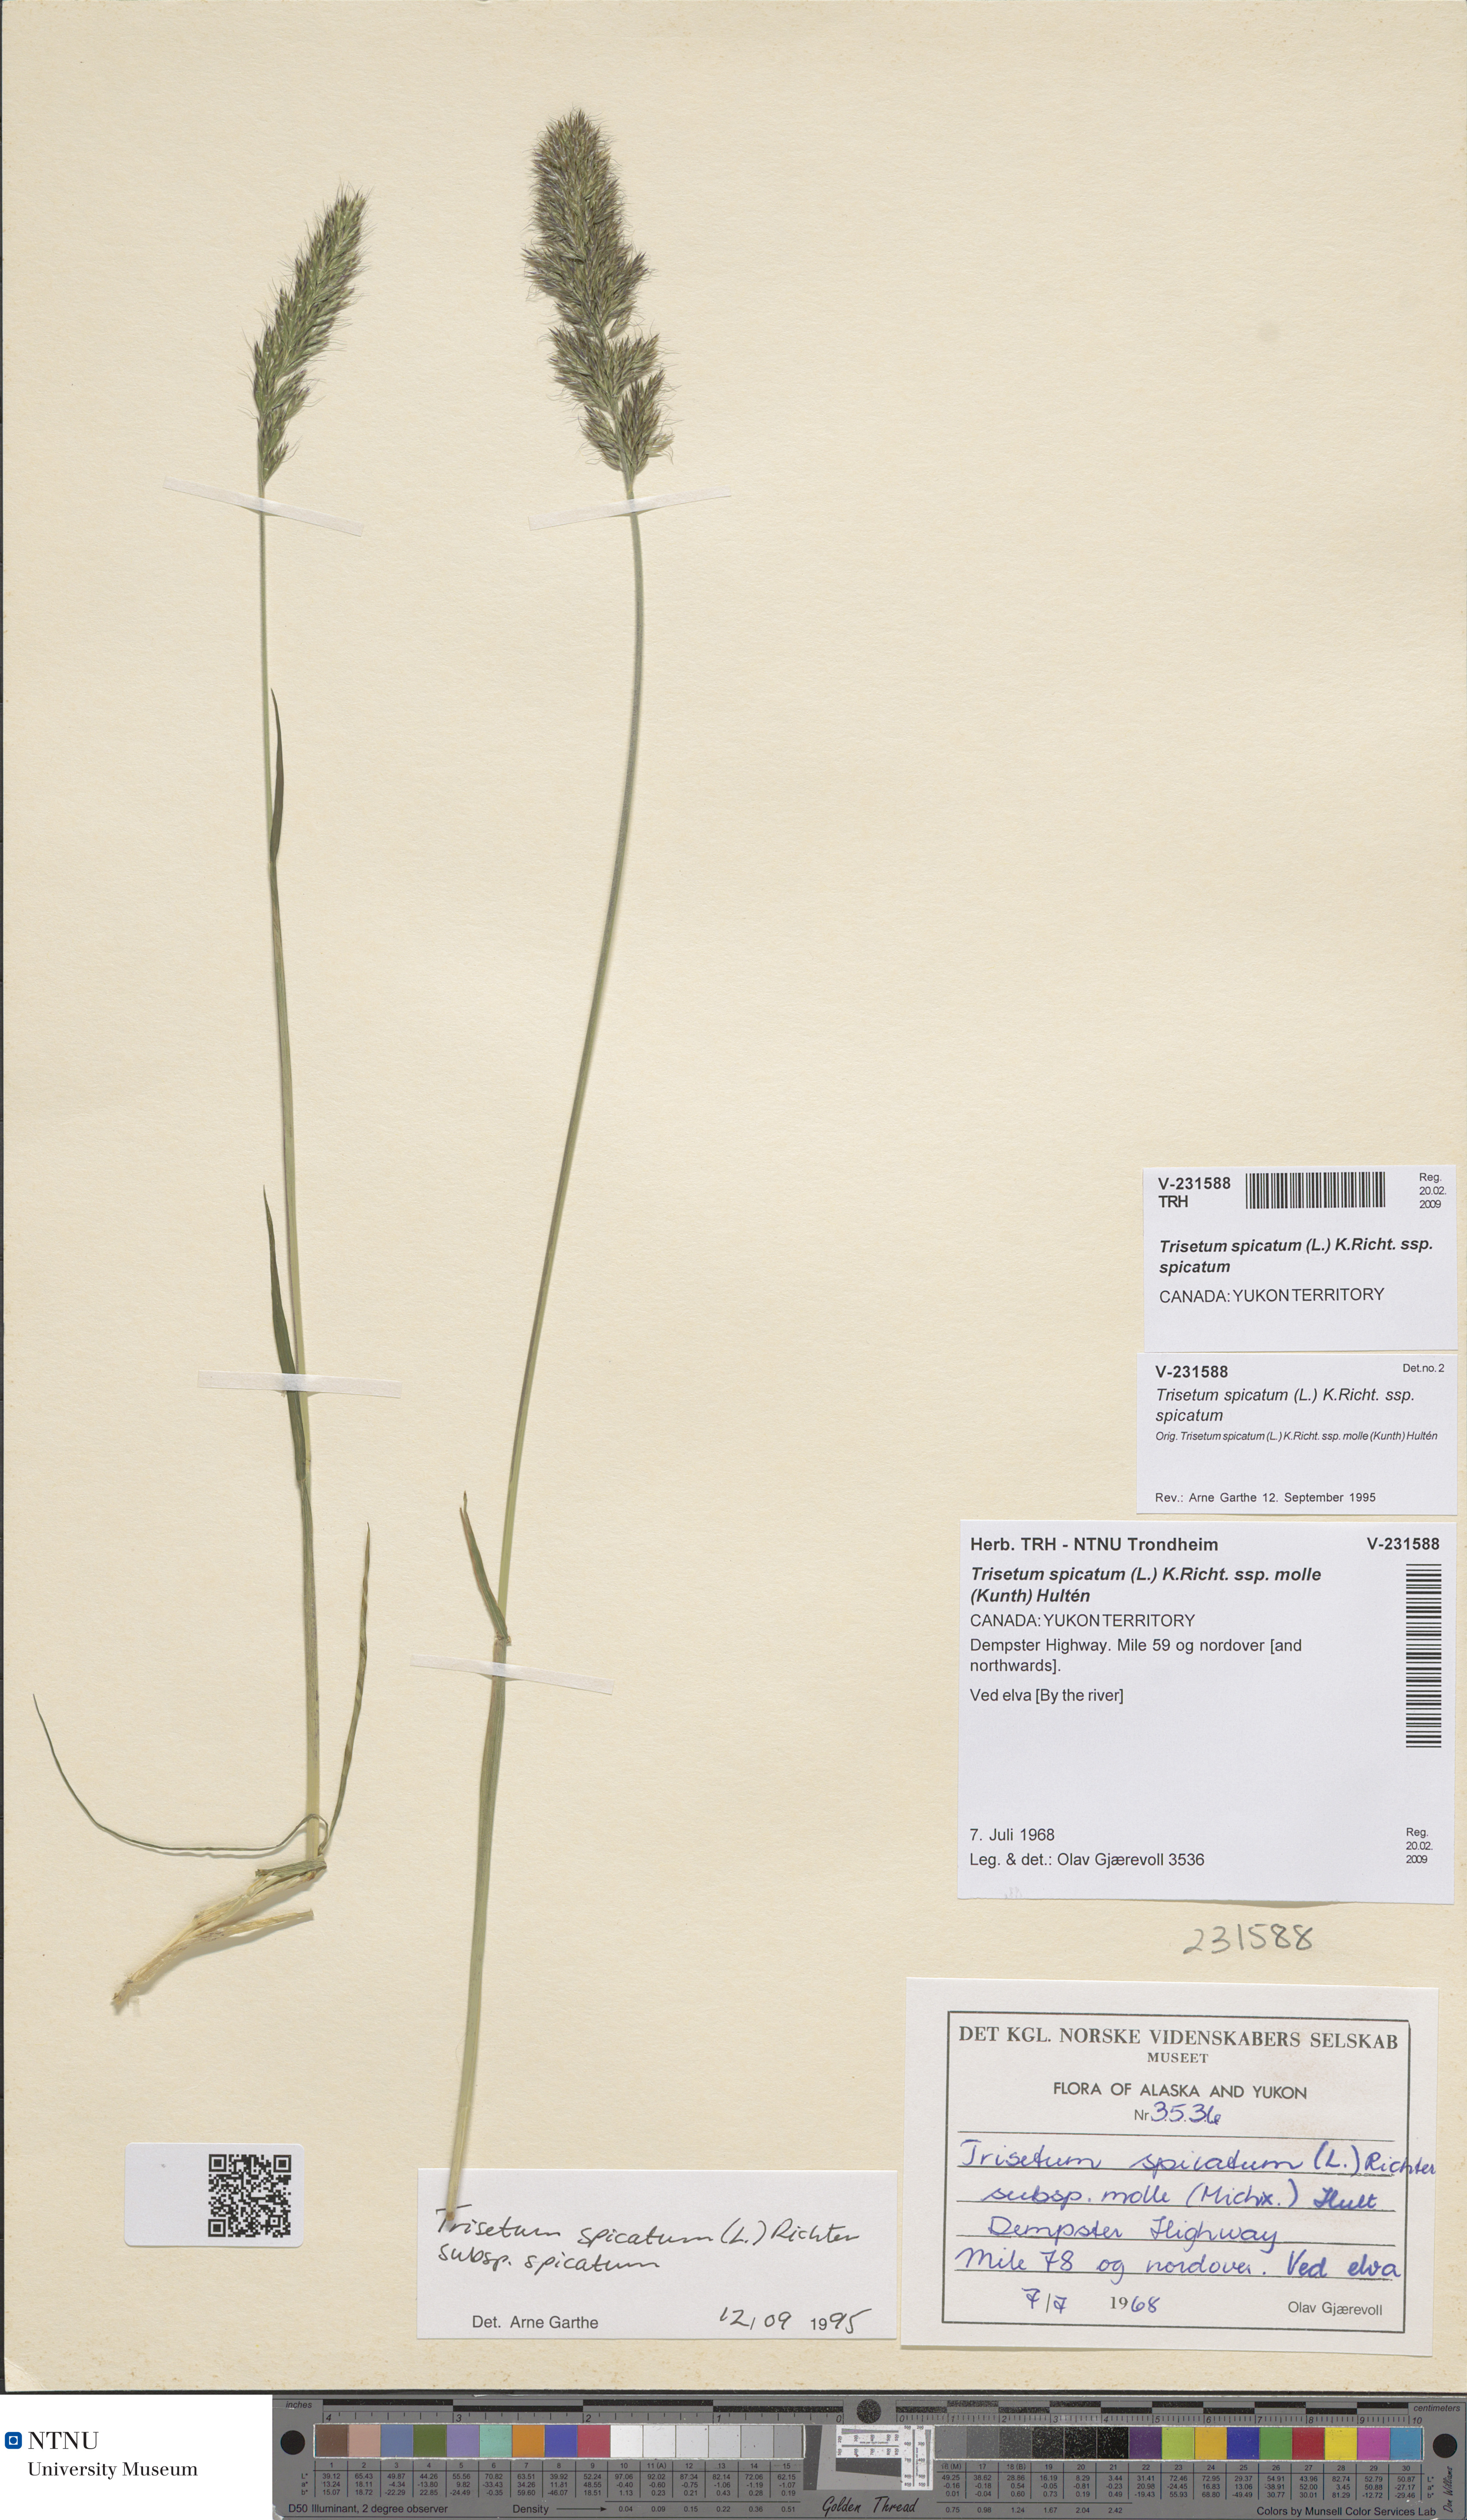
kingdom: Plantae
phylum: Tracheophyta
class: Liliopsida
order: Poales
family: Poaceae
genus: Koeleria
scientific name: Koeleria spicata
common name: Mountain trisetum
